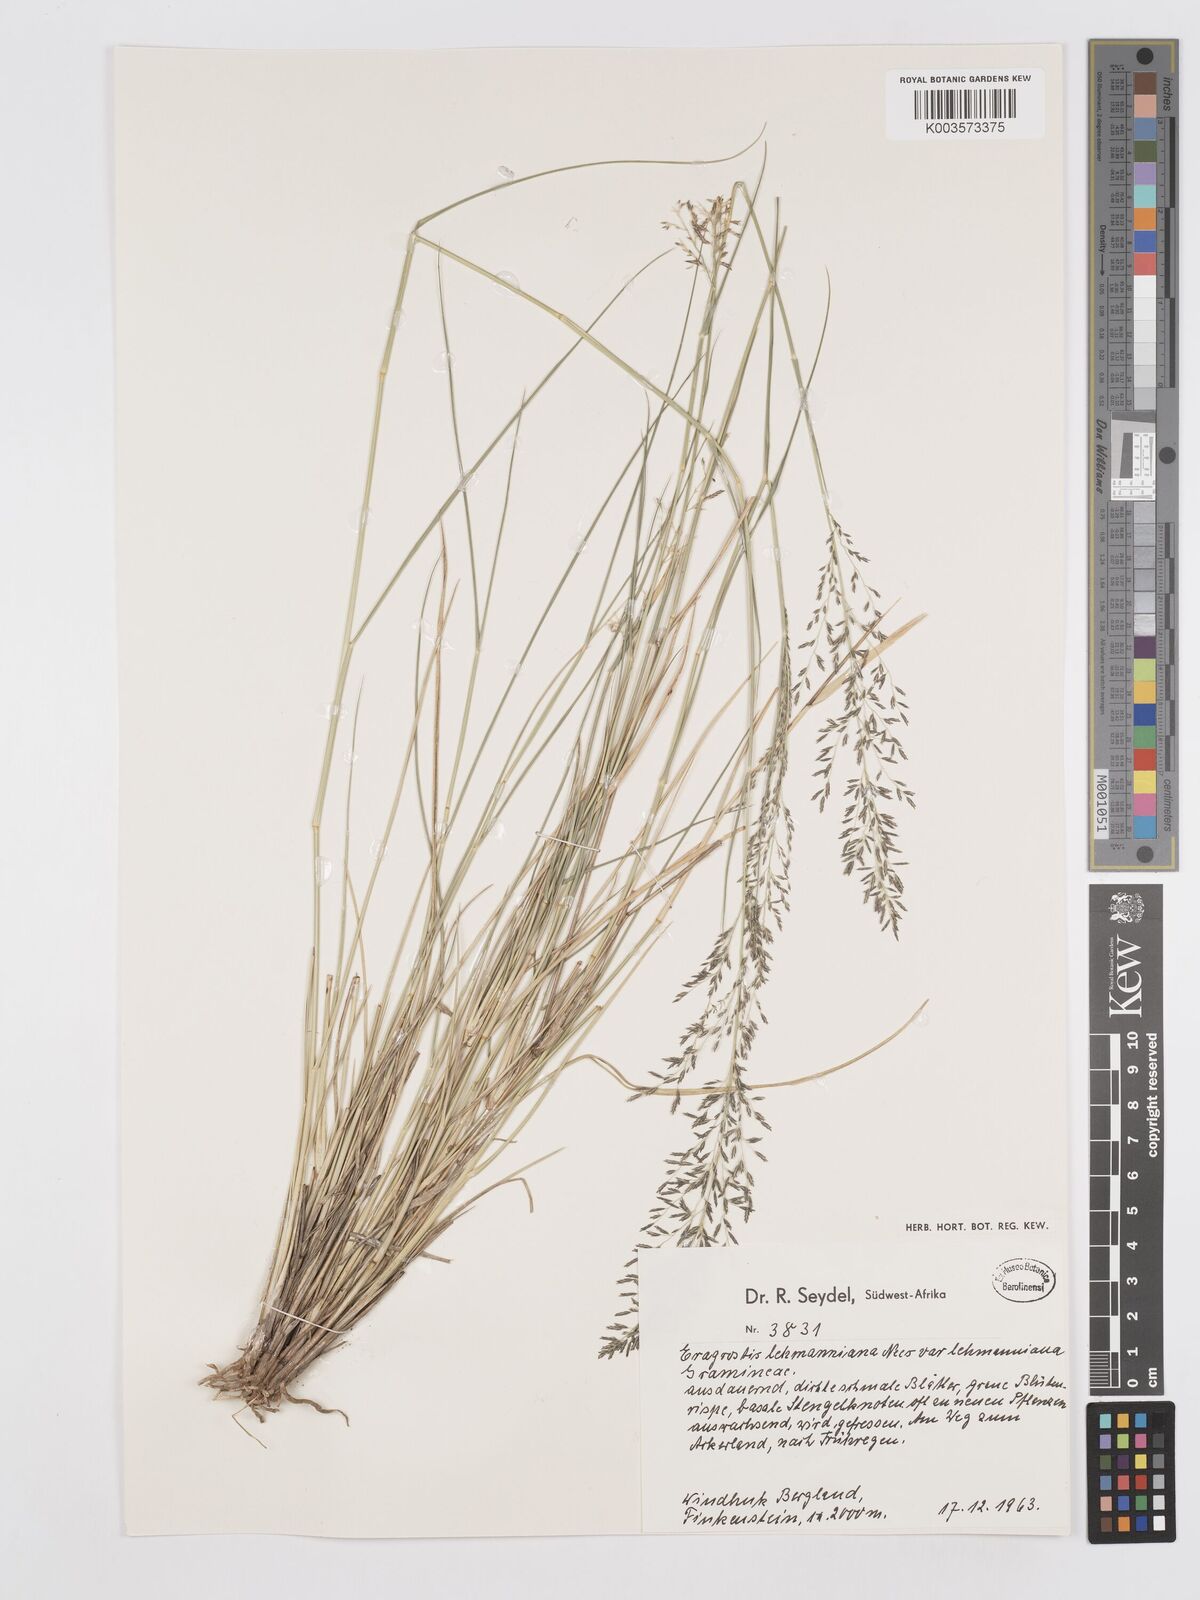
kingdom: Plantae
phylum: Tracheophyta
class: Liliopsida
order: Poales
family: Poaceae
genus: Eragrostis
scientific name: Eragrostis lehmanniana
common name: Lehmann lovegrass
